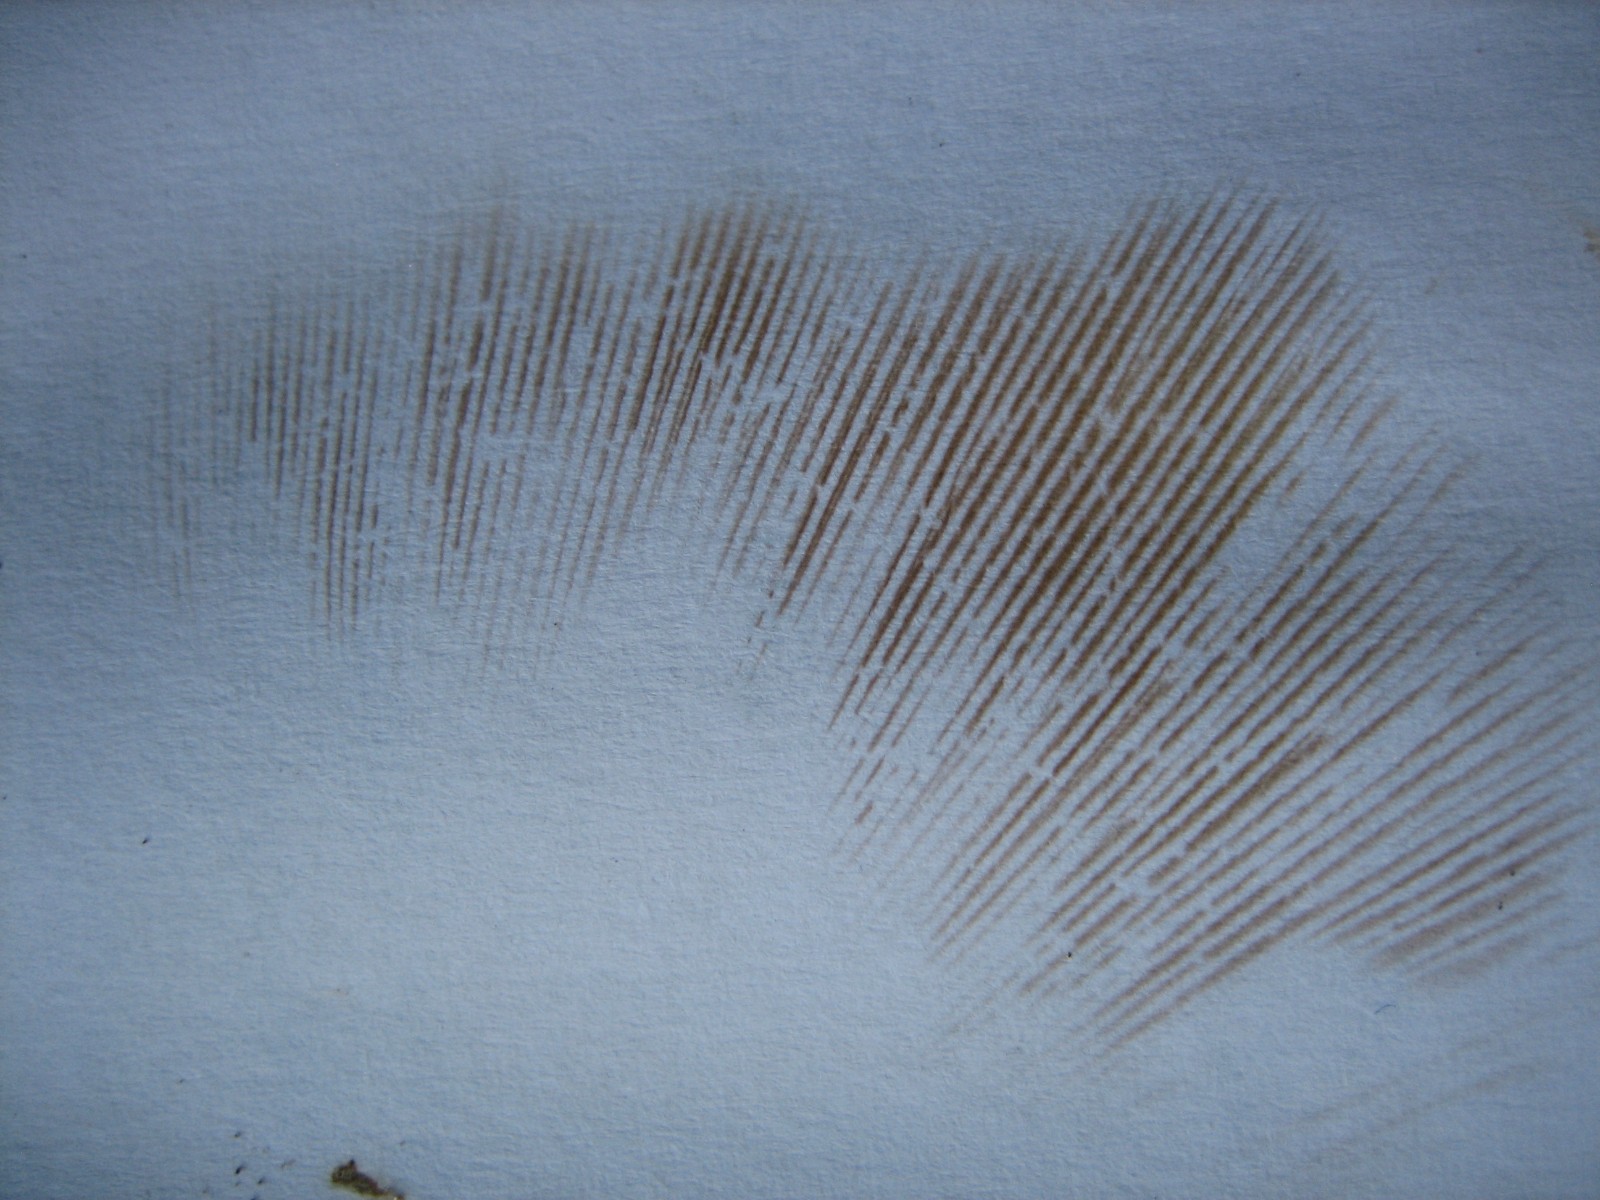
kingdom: Fungi
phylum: Basidiomycota
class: Agaricomycetes
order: Boletales
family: Paxillaceae
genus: Paxillus
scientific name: Paxillus ammoniavirescens
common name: olivensporet netbladhat
